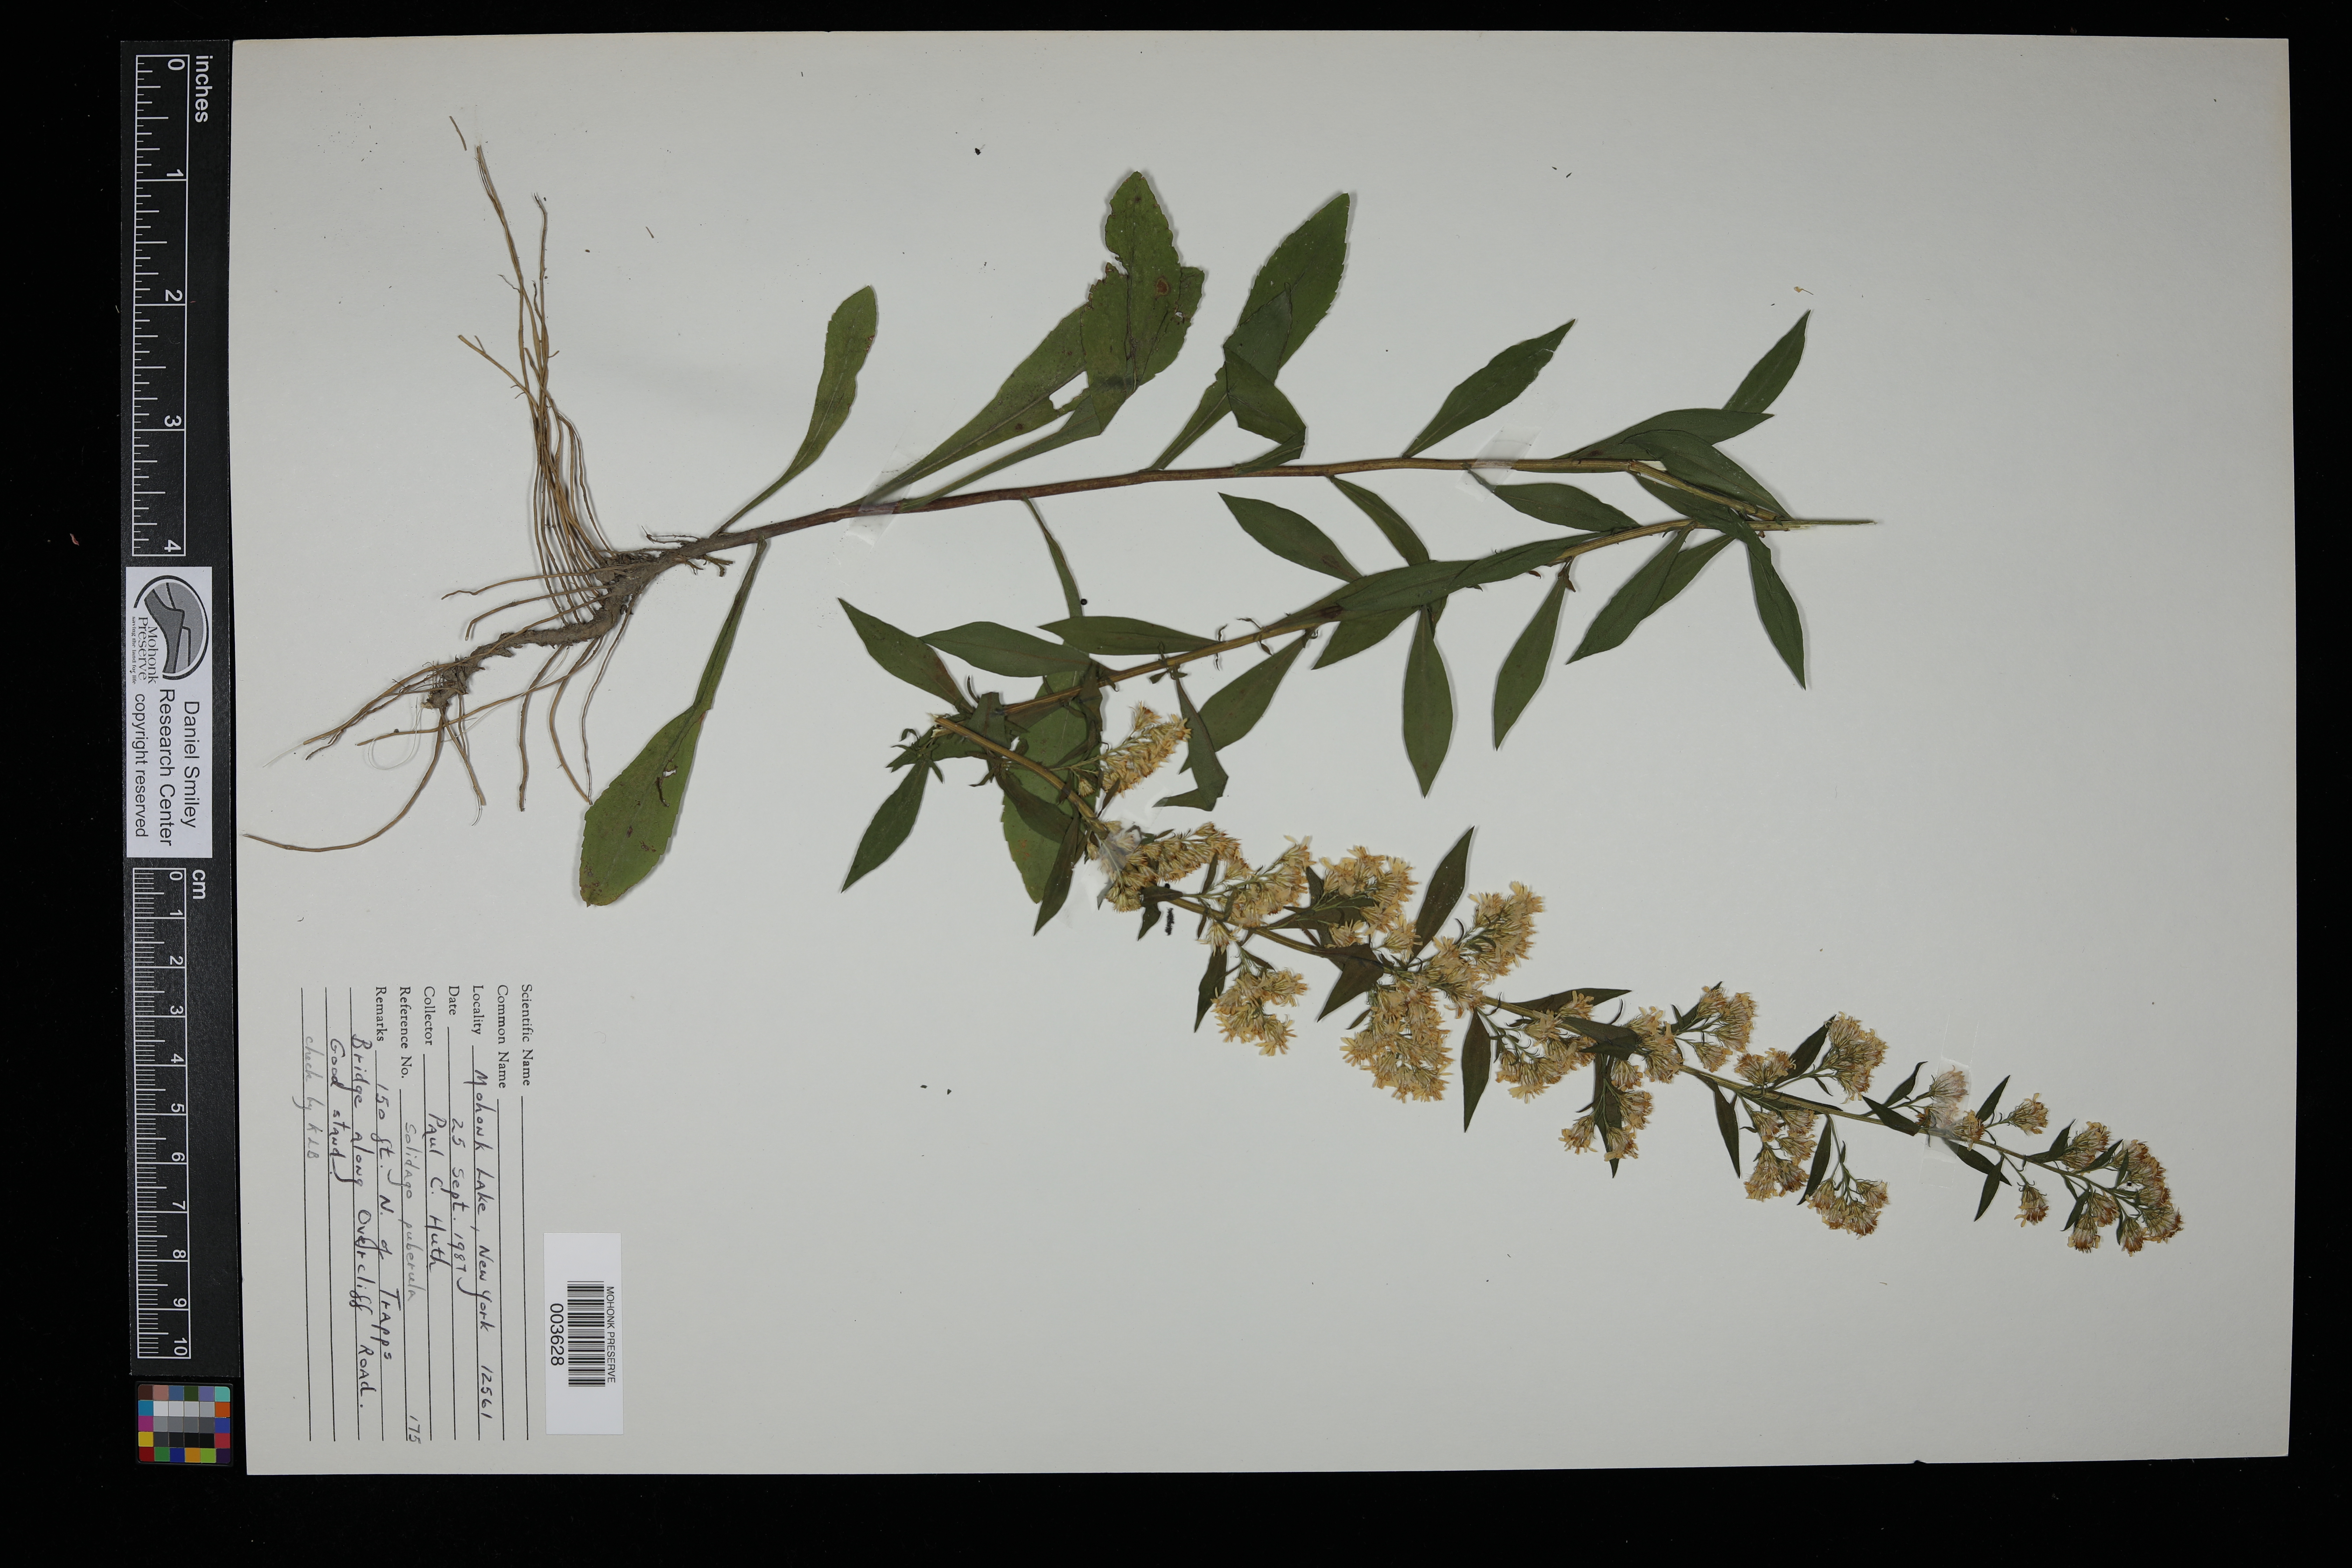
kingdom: Plantae
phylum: Tracheophyta
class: Magnoliopsida
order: Asterales
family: Asteraceae
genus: Solidago
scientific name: Solidago puberula
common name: Downy goldenrod
